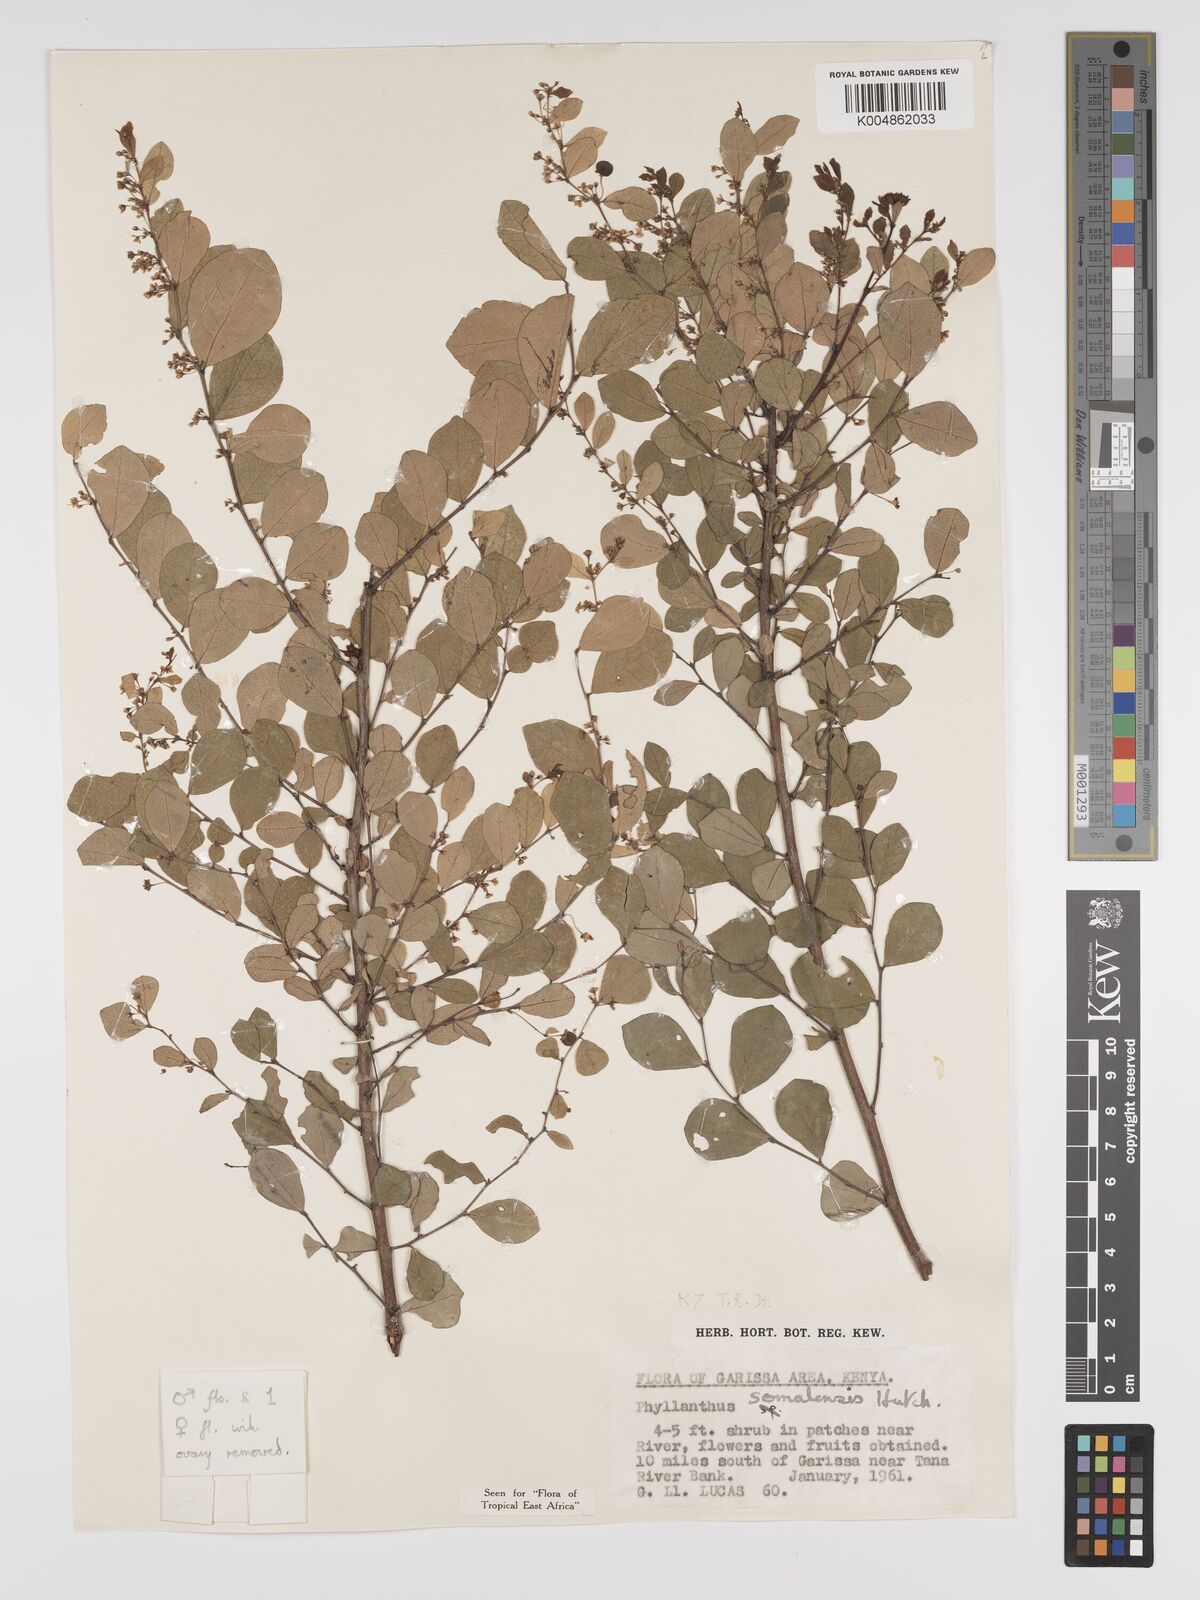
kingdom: Plantae
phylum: Tracheophyta
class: Magnoliopsida
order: Malpighiales
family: Phyllanthaceae
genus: Phyllanthus
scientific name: Phyllanthus somalensis
